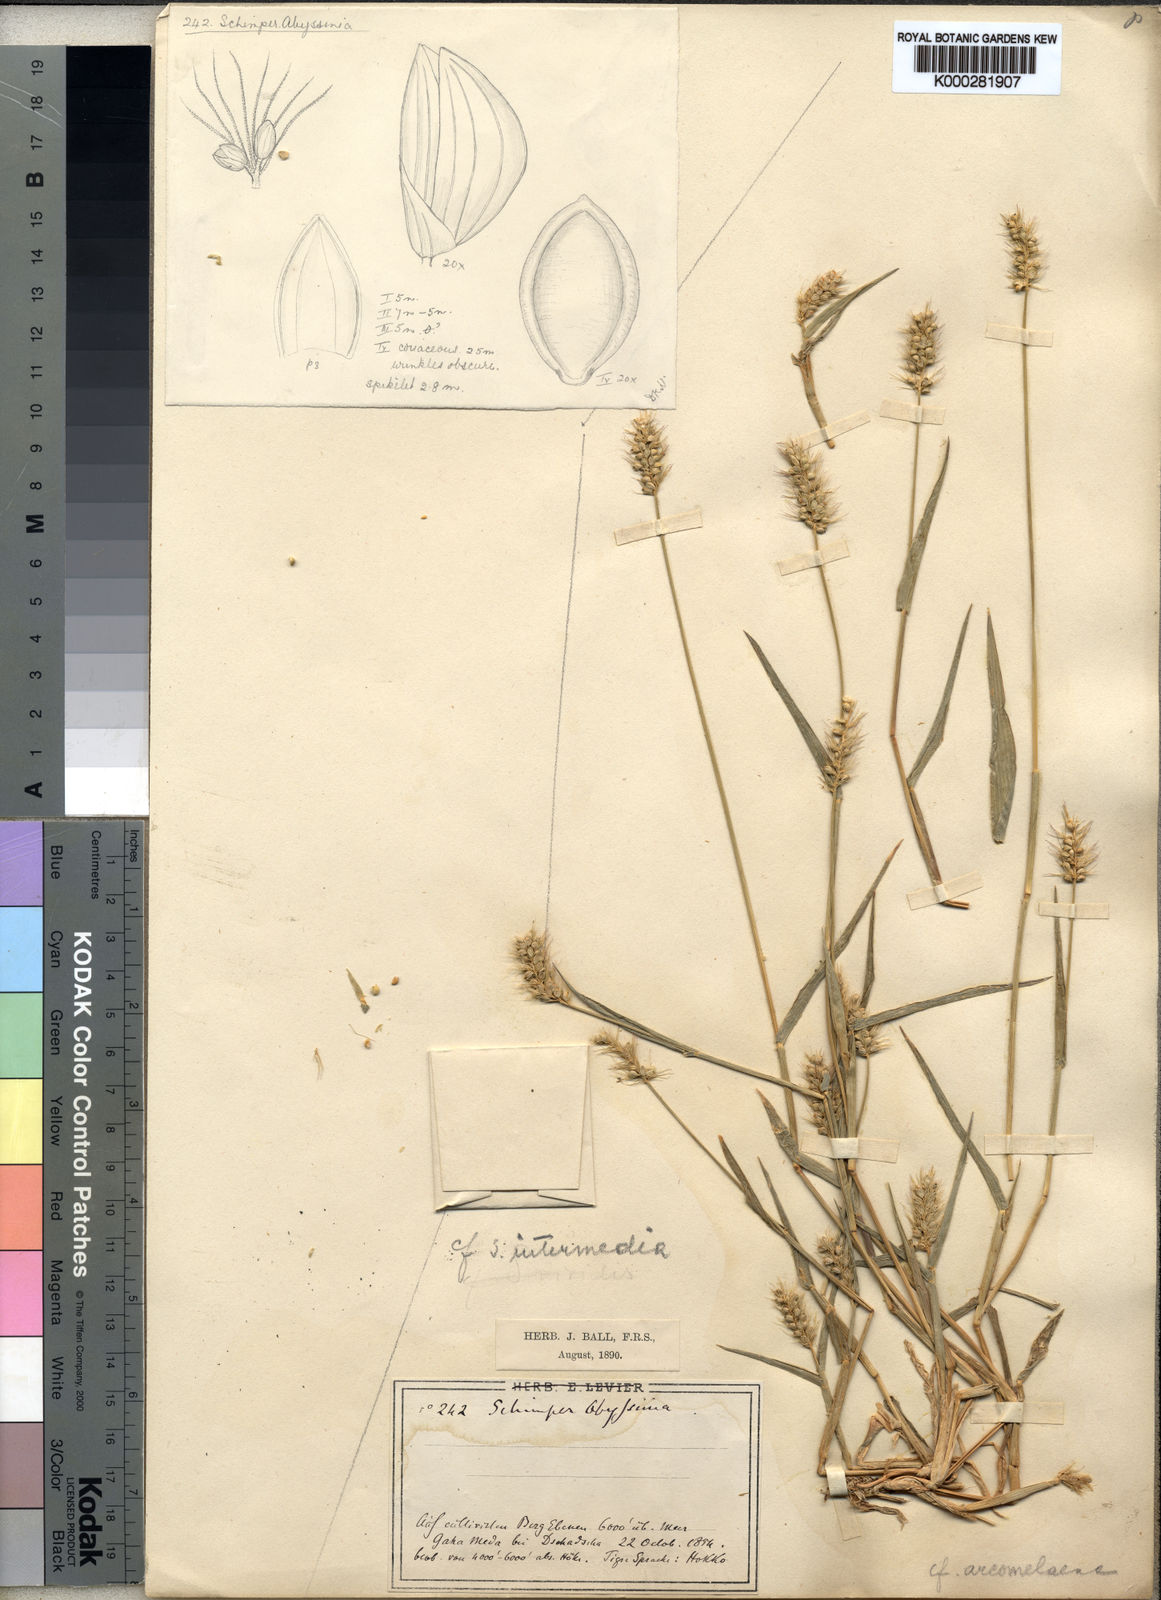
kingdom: Plantae
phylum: Tracheophyta
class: Liliopsida
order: Poales
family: Poaceae
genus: Setaria
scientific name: Setaria
